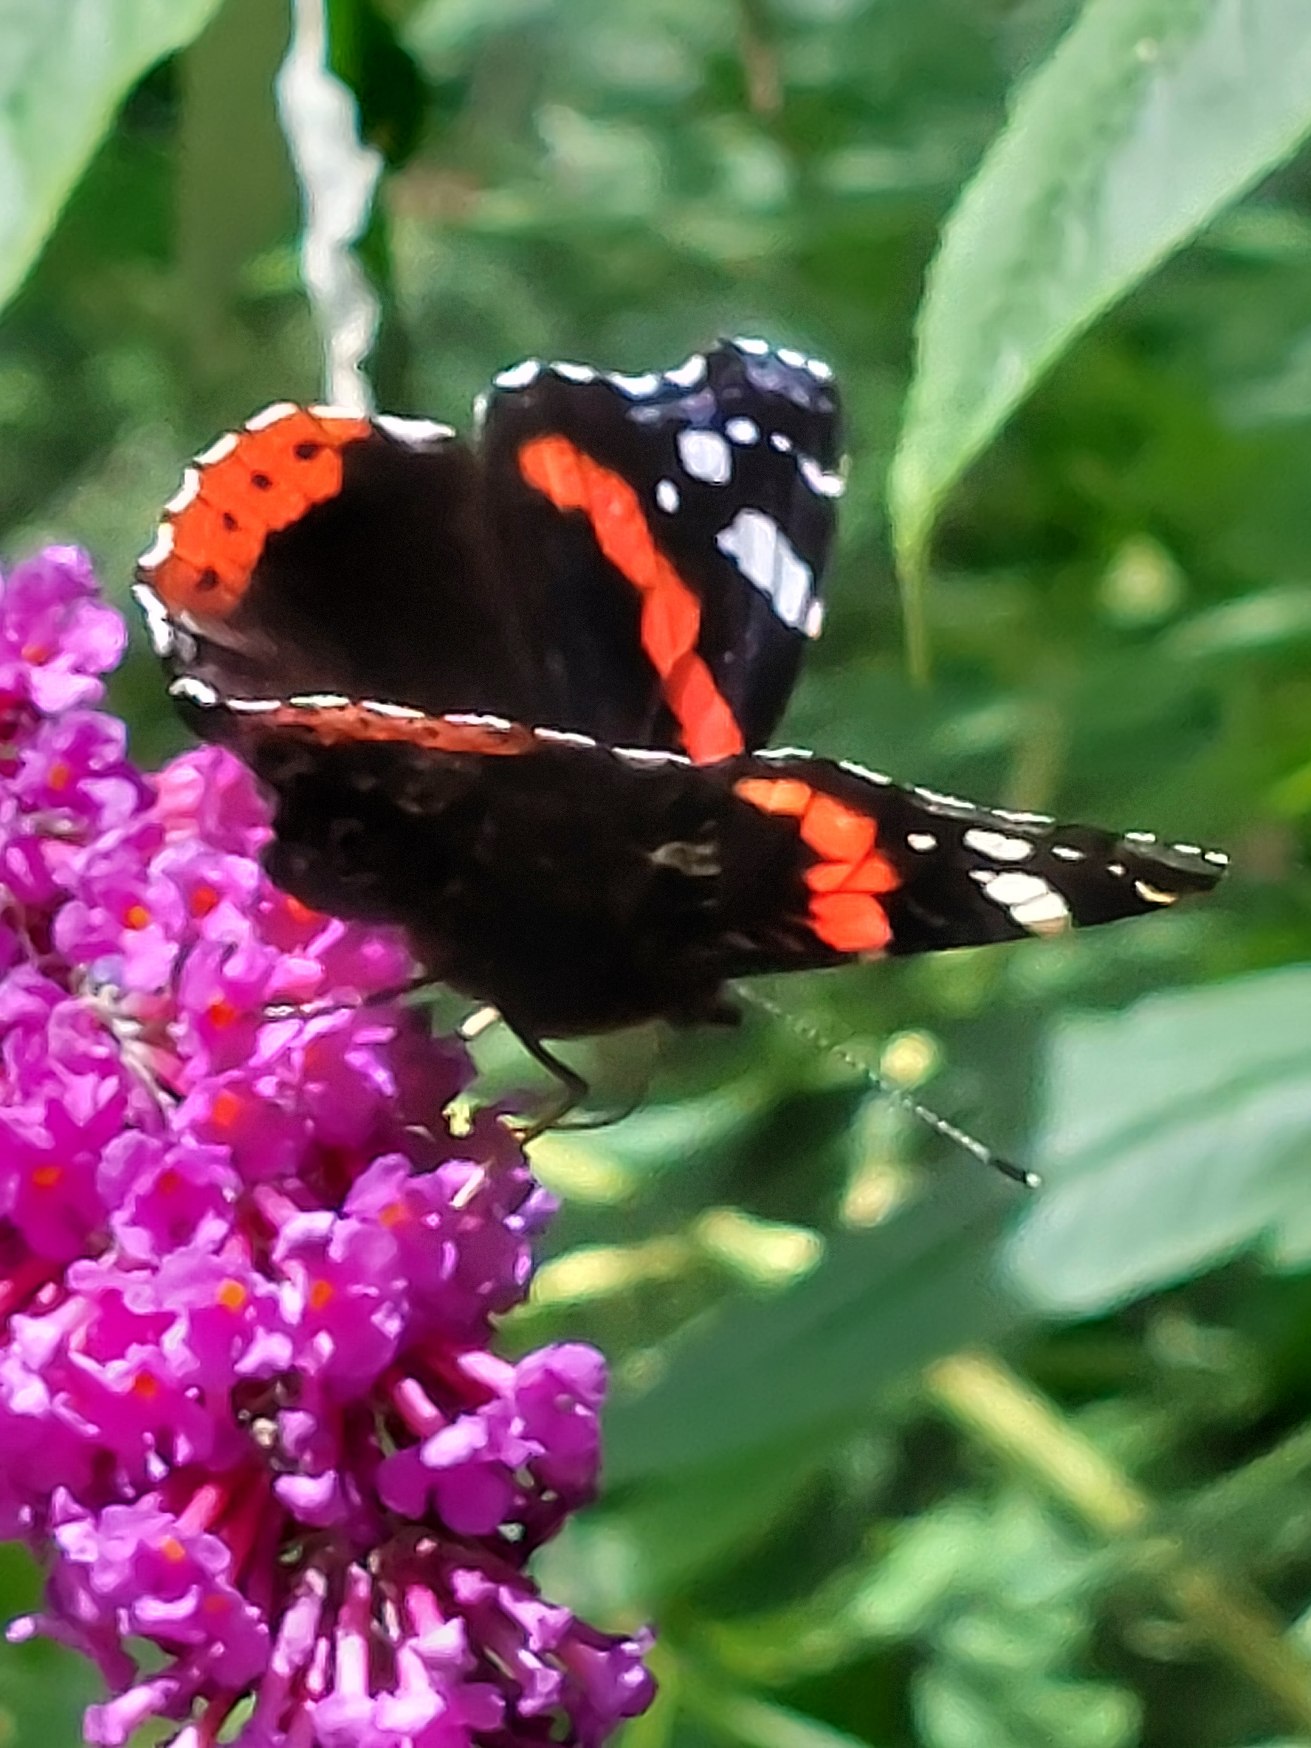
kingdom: Animalia
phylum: Arthropoda
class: Insecta
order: Lepidoptera
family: Nymphalidae
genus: Vanessa
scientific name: Vanessa atalanta
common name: Admiral
